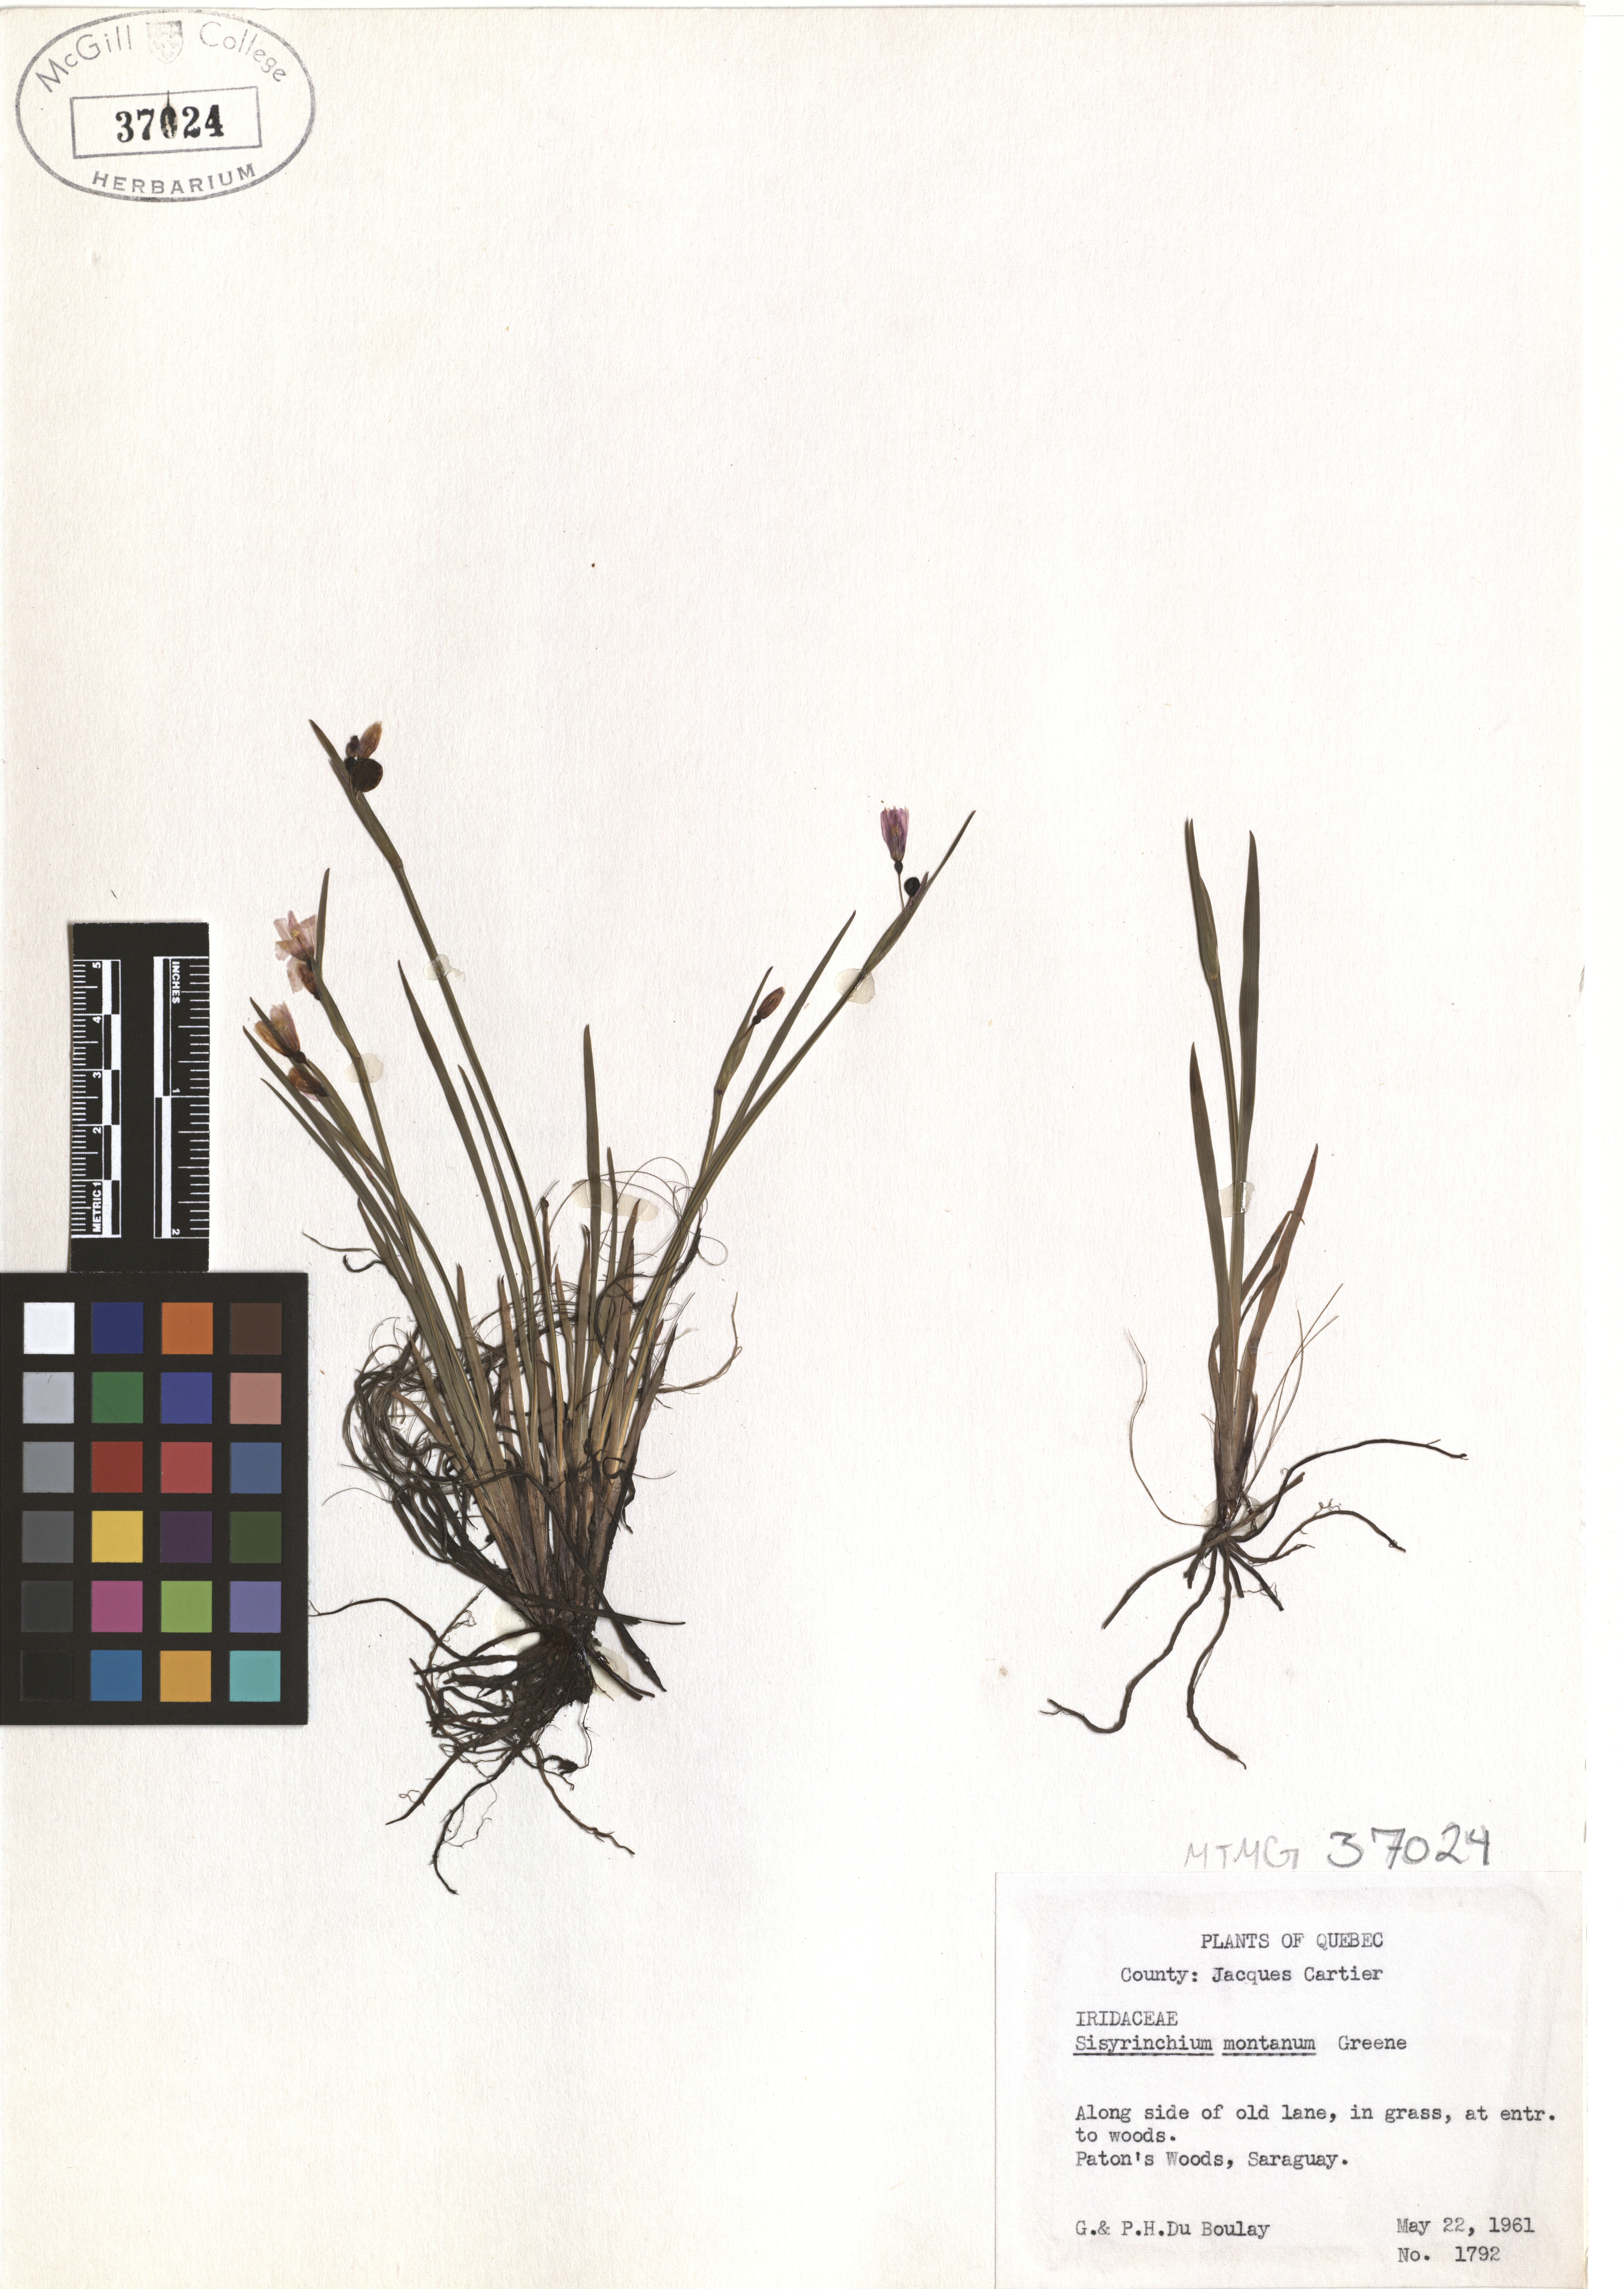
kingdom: Plantae
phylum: Tracheophyta
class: Liliopsida
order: Asparagales
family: Iridaceae
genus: Sisyrinchium
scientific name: Sisyrinchium montanum
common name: American blue-eyed-grass
